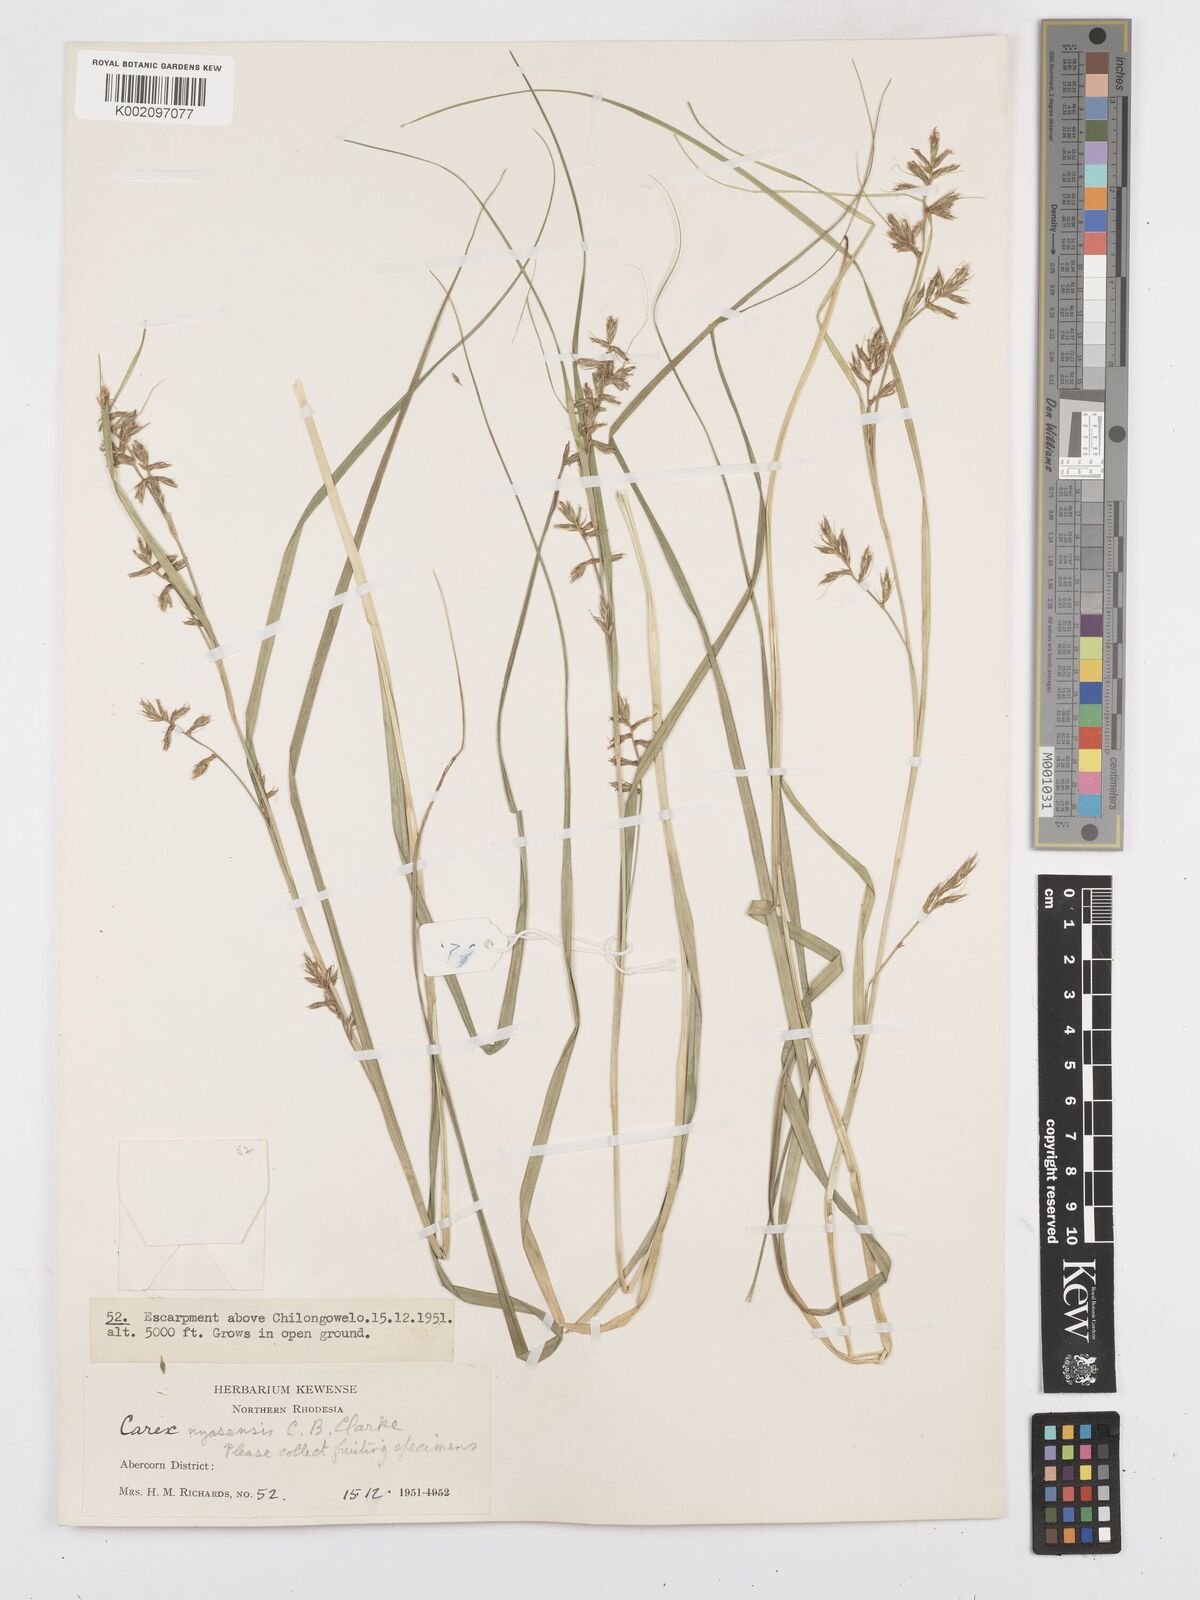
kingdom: Plantae
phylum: Tracheophyta
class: Liliopsida
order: Poales
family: Cyperaceae
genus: Carex
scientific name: Carex macrophyllidion
